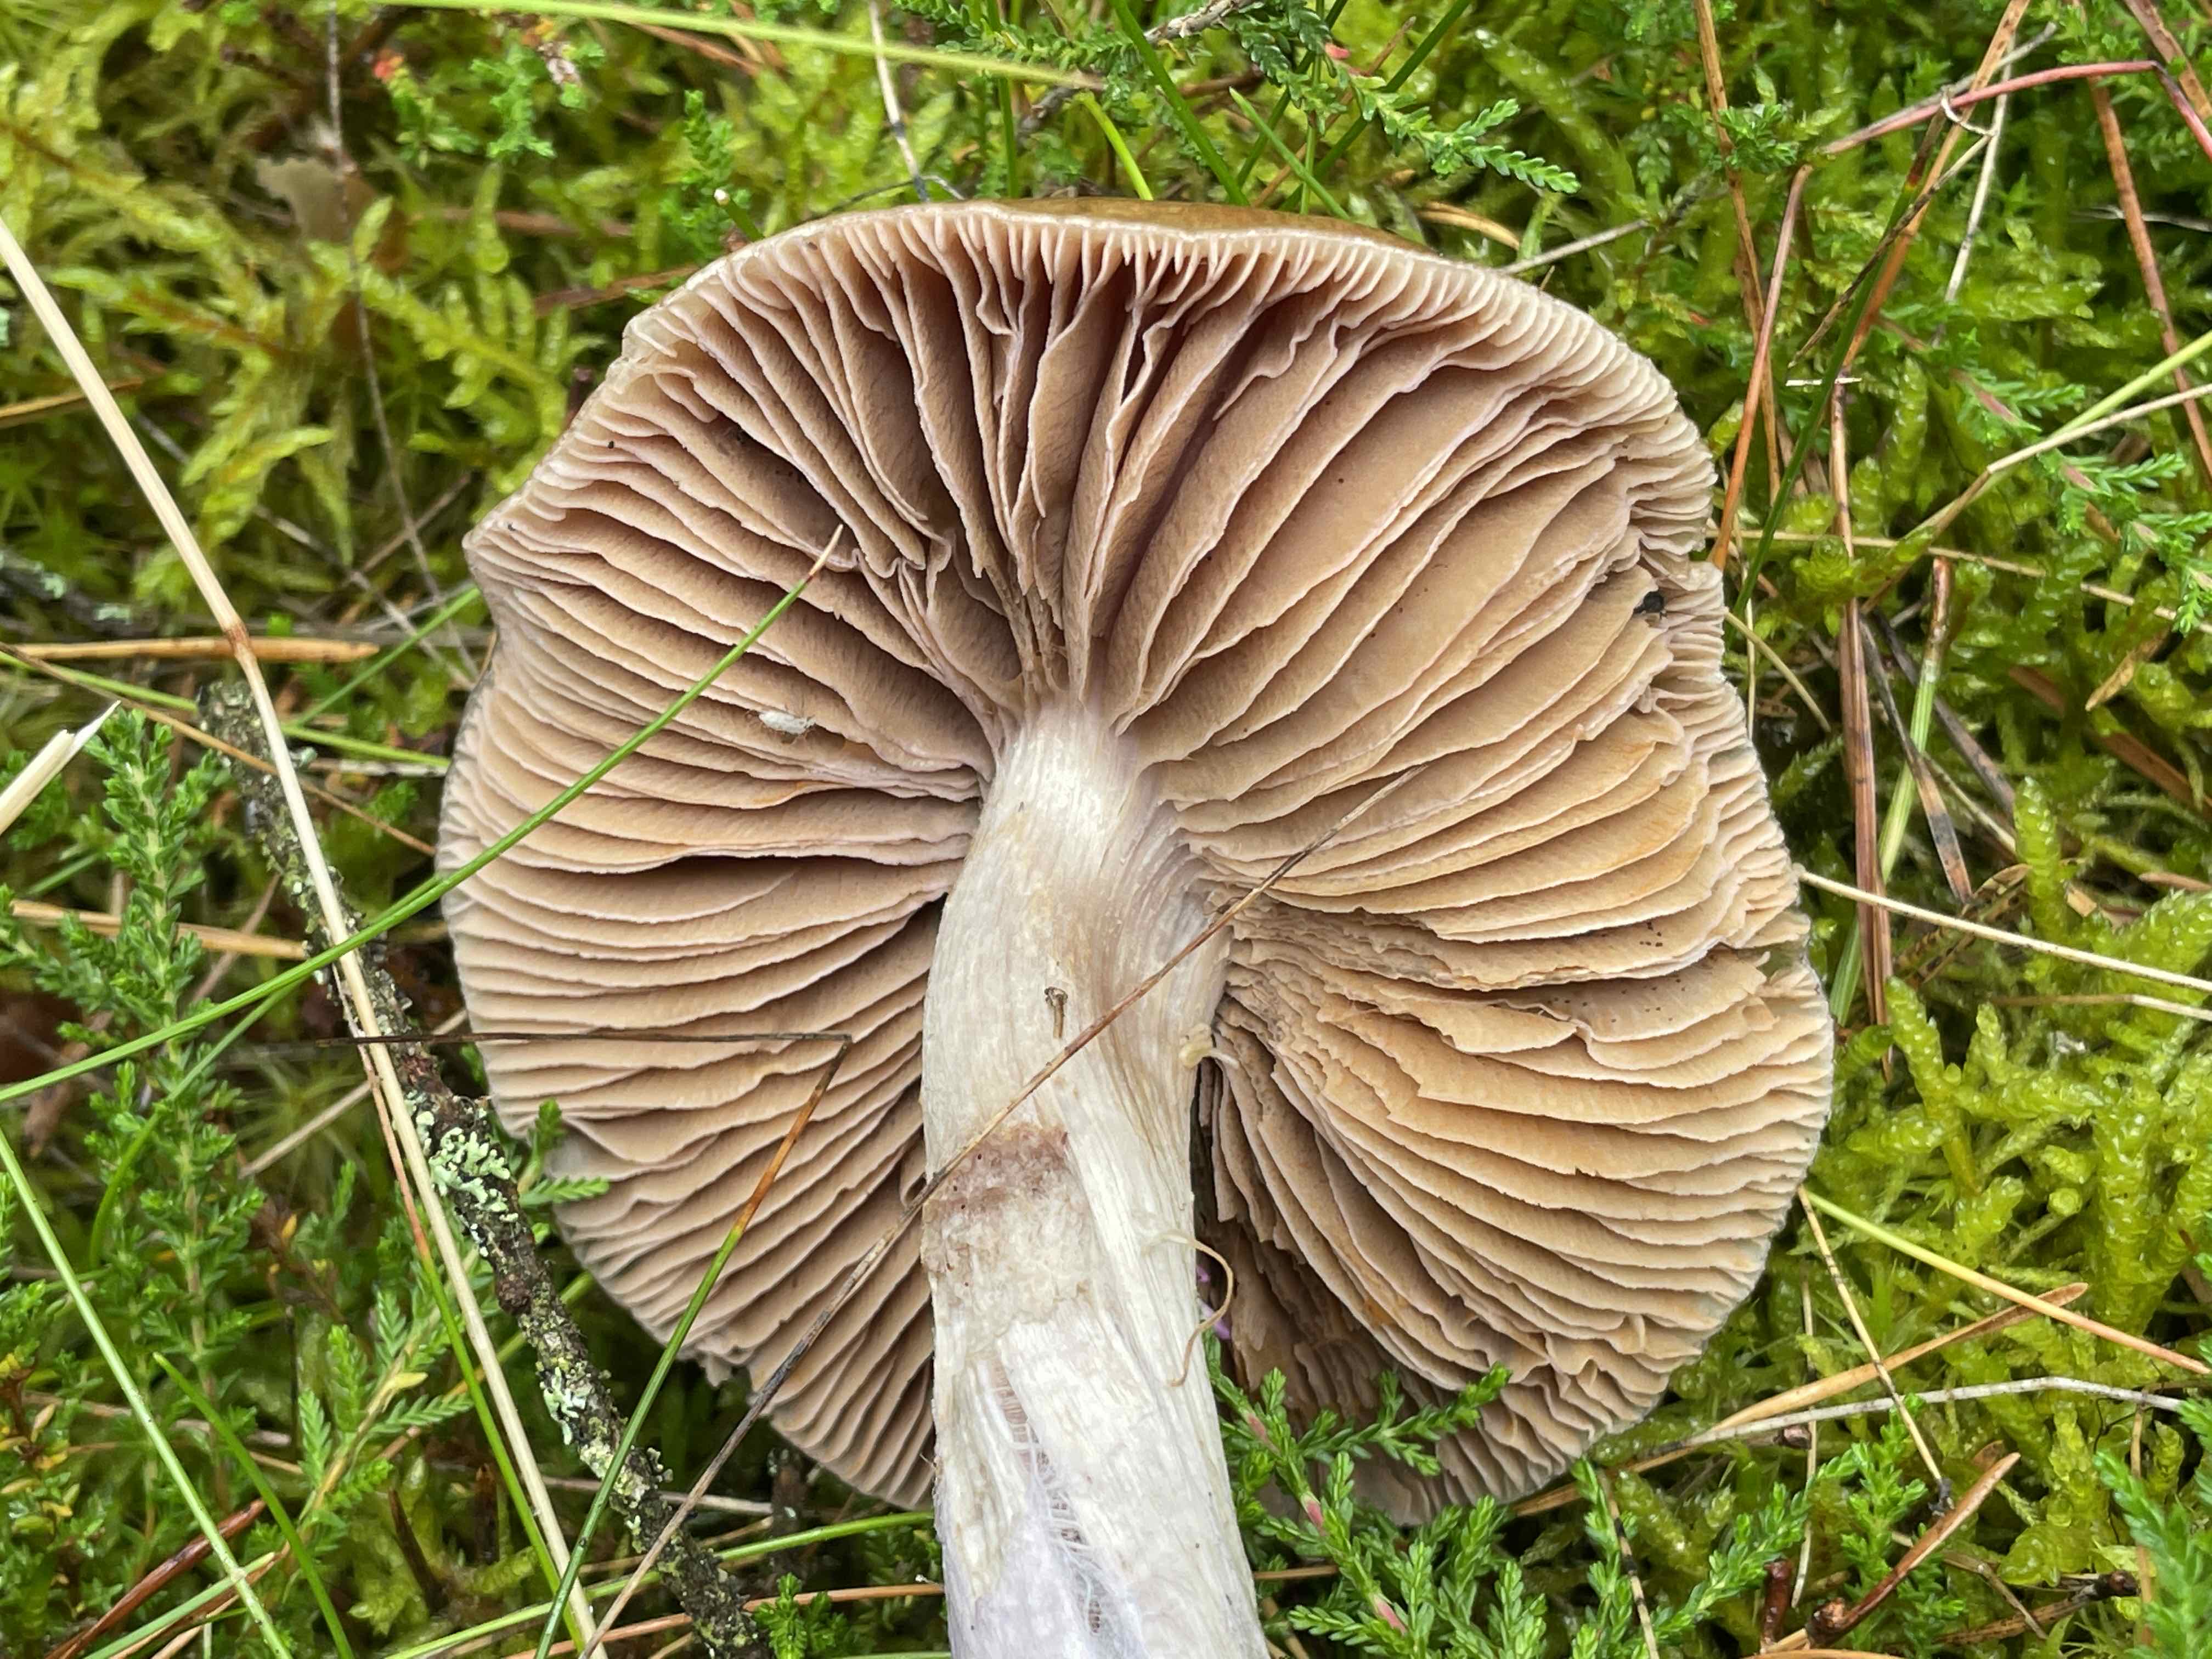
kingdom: Fungi
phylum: Basidiomycota
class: Agaricomycetes
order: Agaricales
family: Cortinariaceae
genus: Cortinarius
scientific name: Cortinarius stillatitius
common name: honningduftende slørhat
